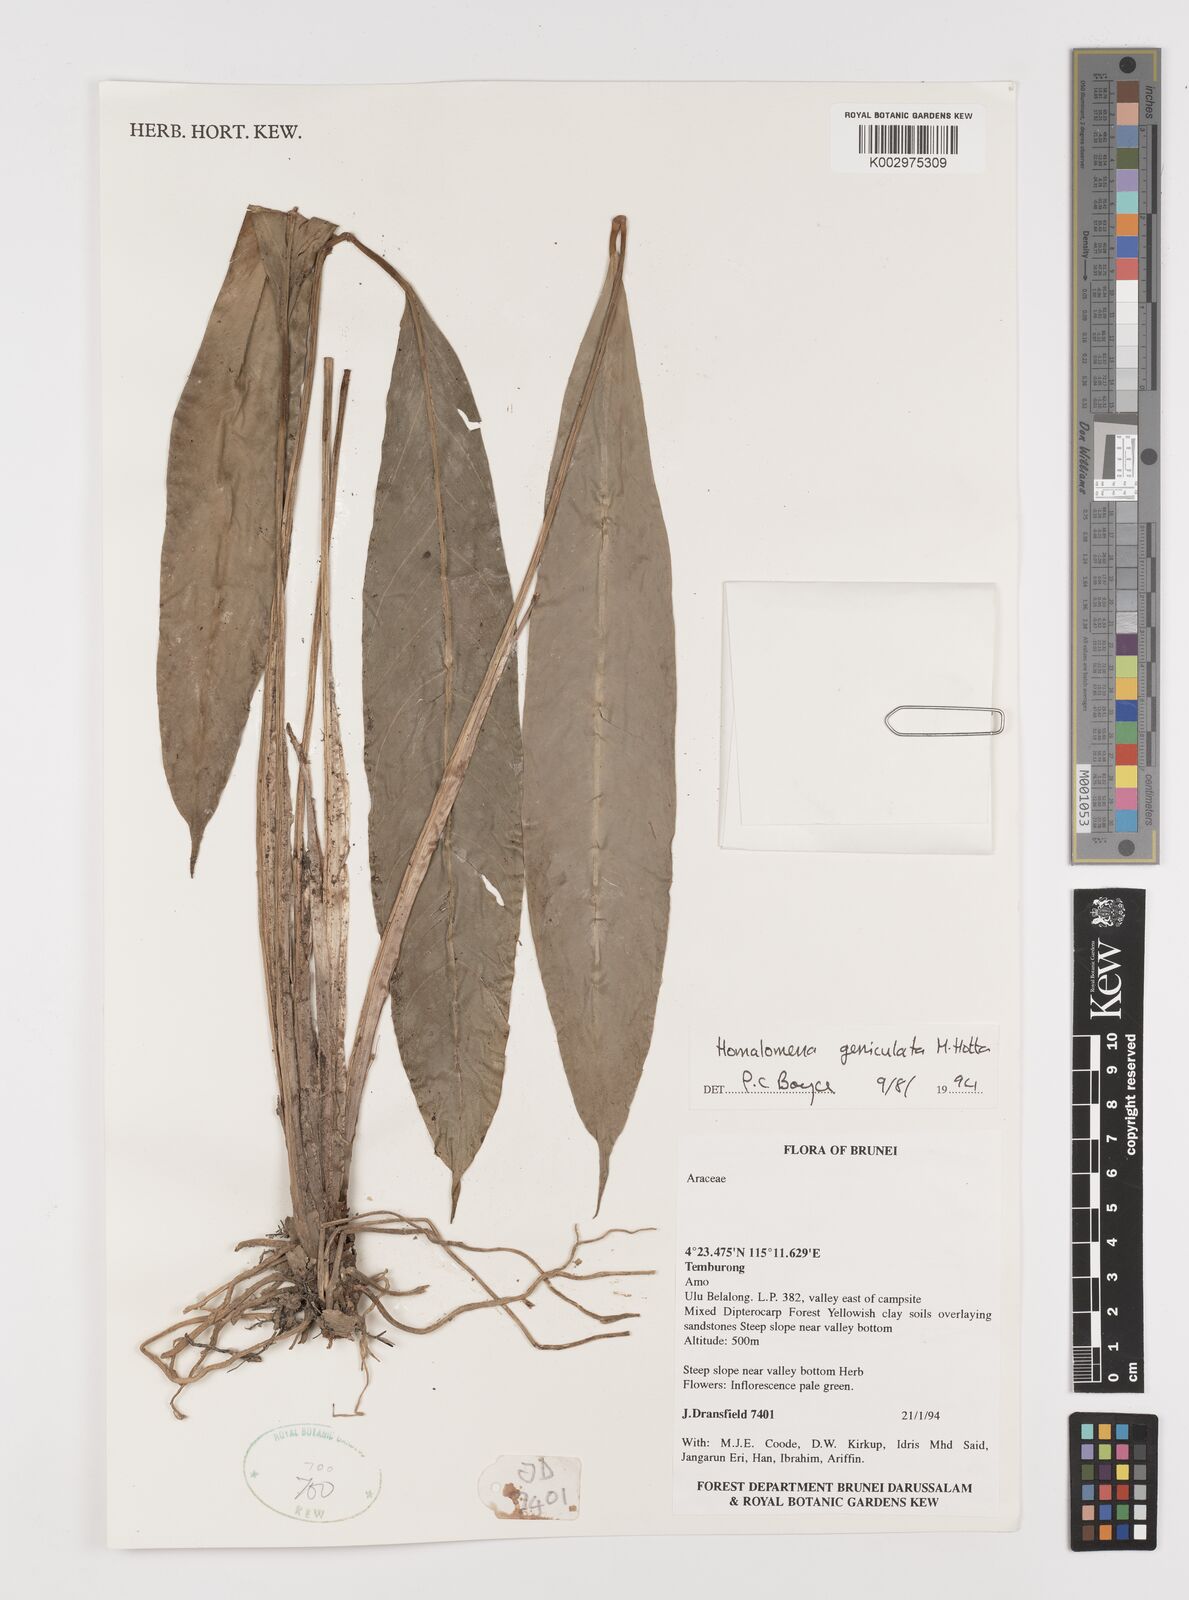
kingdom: Plantae
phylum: Tracheophyta
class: Liliopsida
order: Alismatales
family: Araceae
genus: Homalomena
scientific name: Homalomena punctulata
